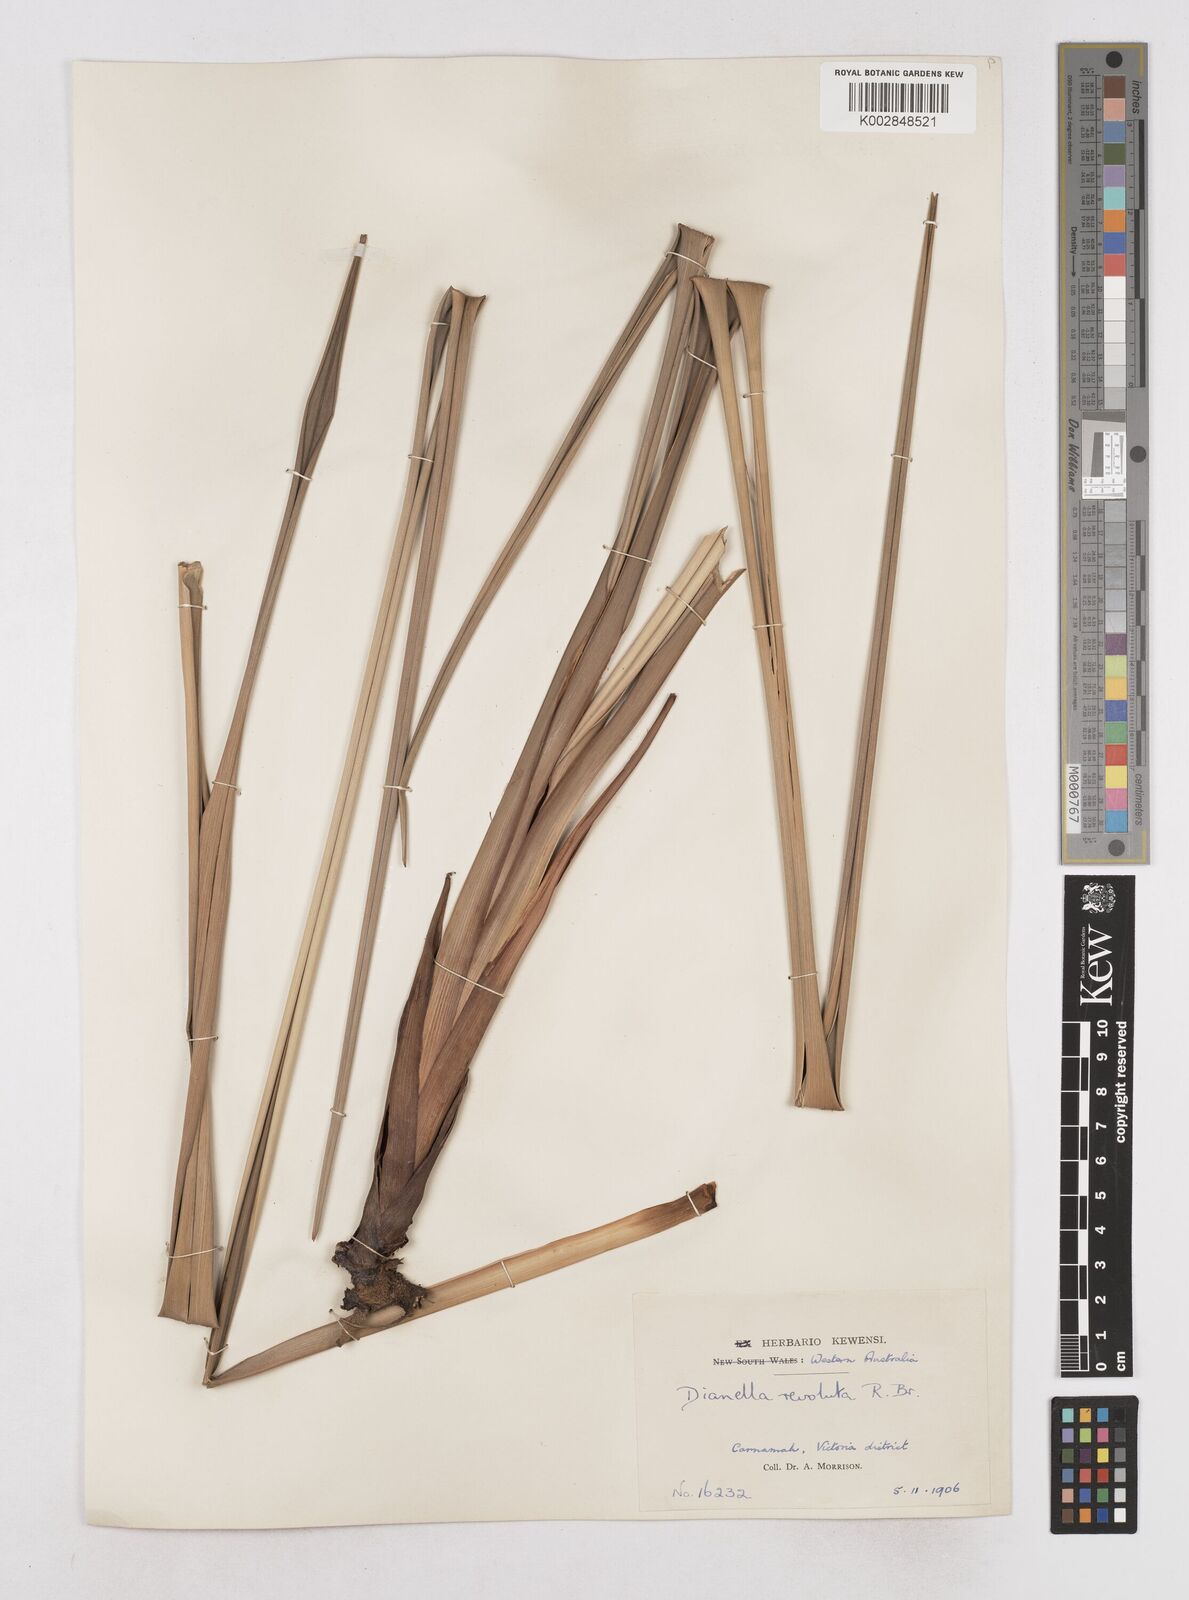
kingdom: Plantae
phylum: Tracheophyta
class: Liliopsida
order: Asparagales
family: Asphodelaceae
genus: Dianella
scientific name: Dianella revoluta
